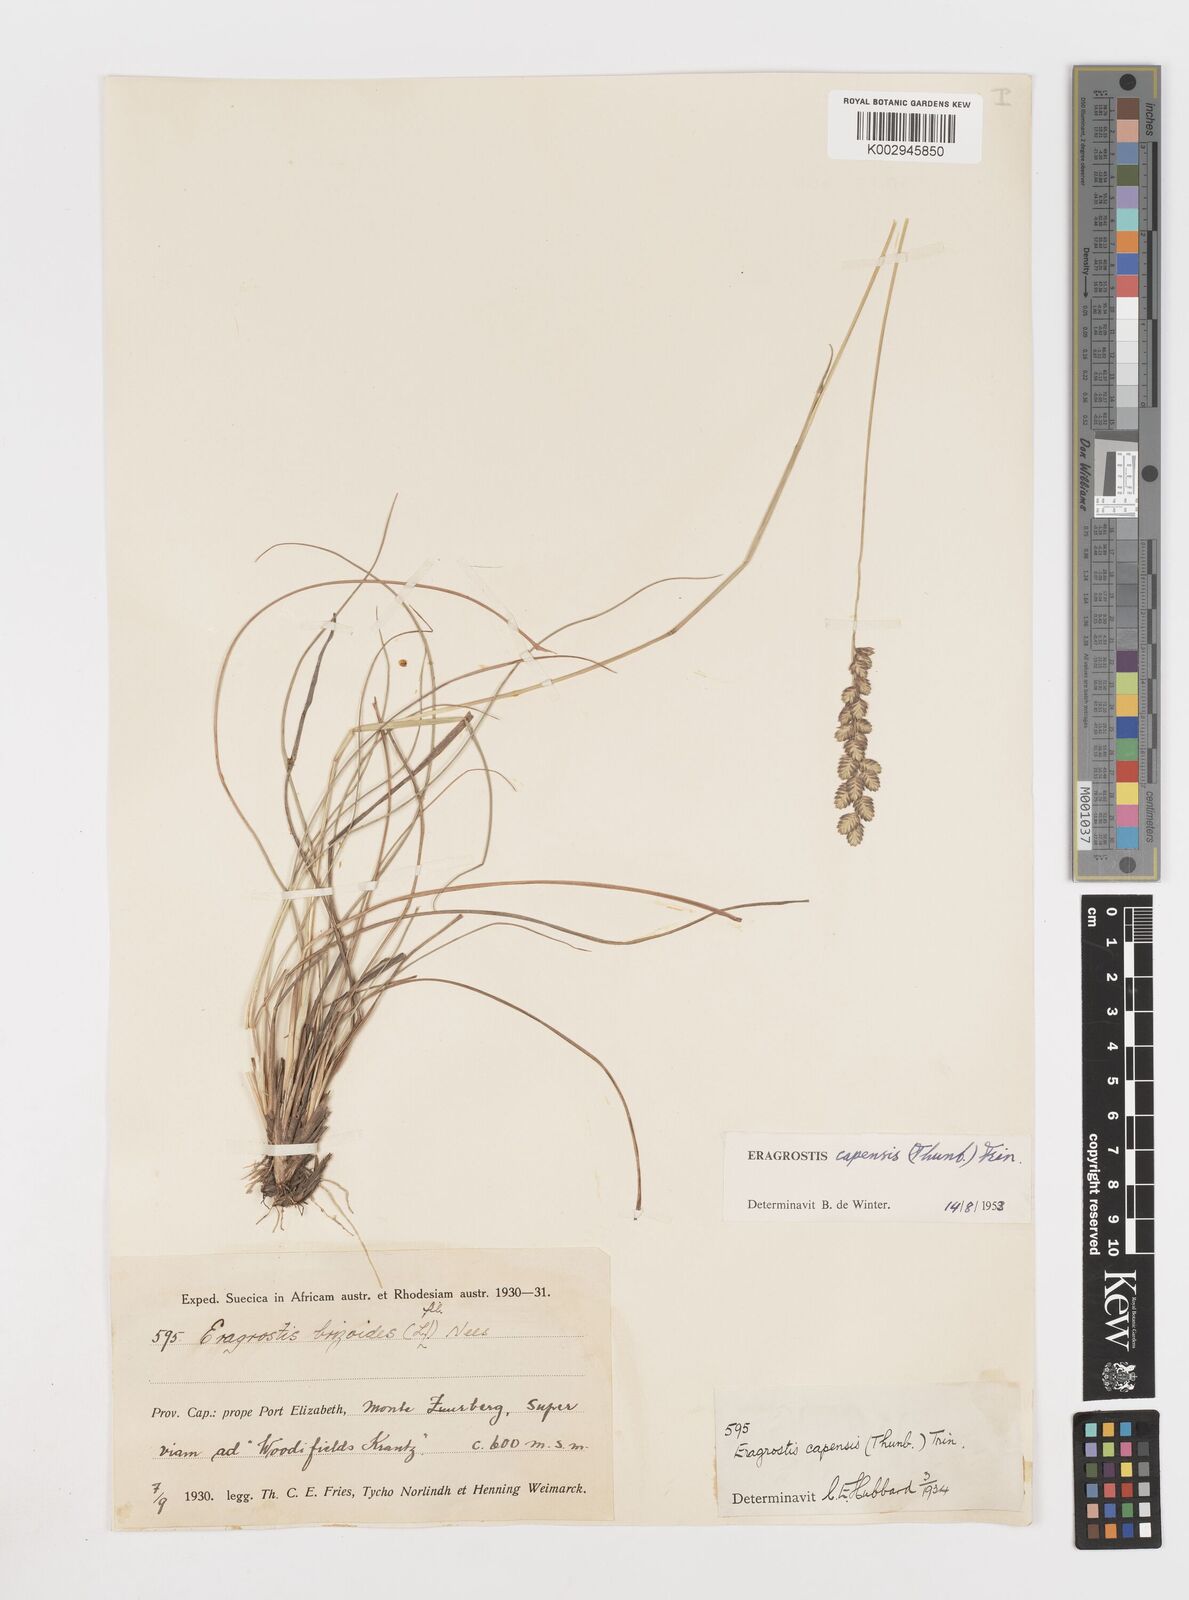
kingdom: Plantae
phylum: Tracheophyta
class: Liliopsida
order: Poales
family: Poaceae
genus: Eragrostis
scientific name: Eragrostis capensis
